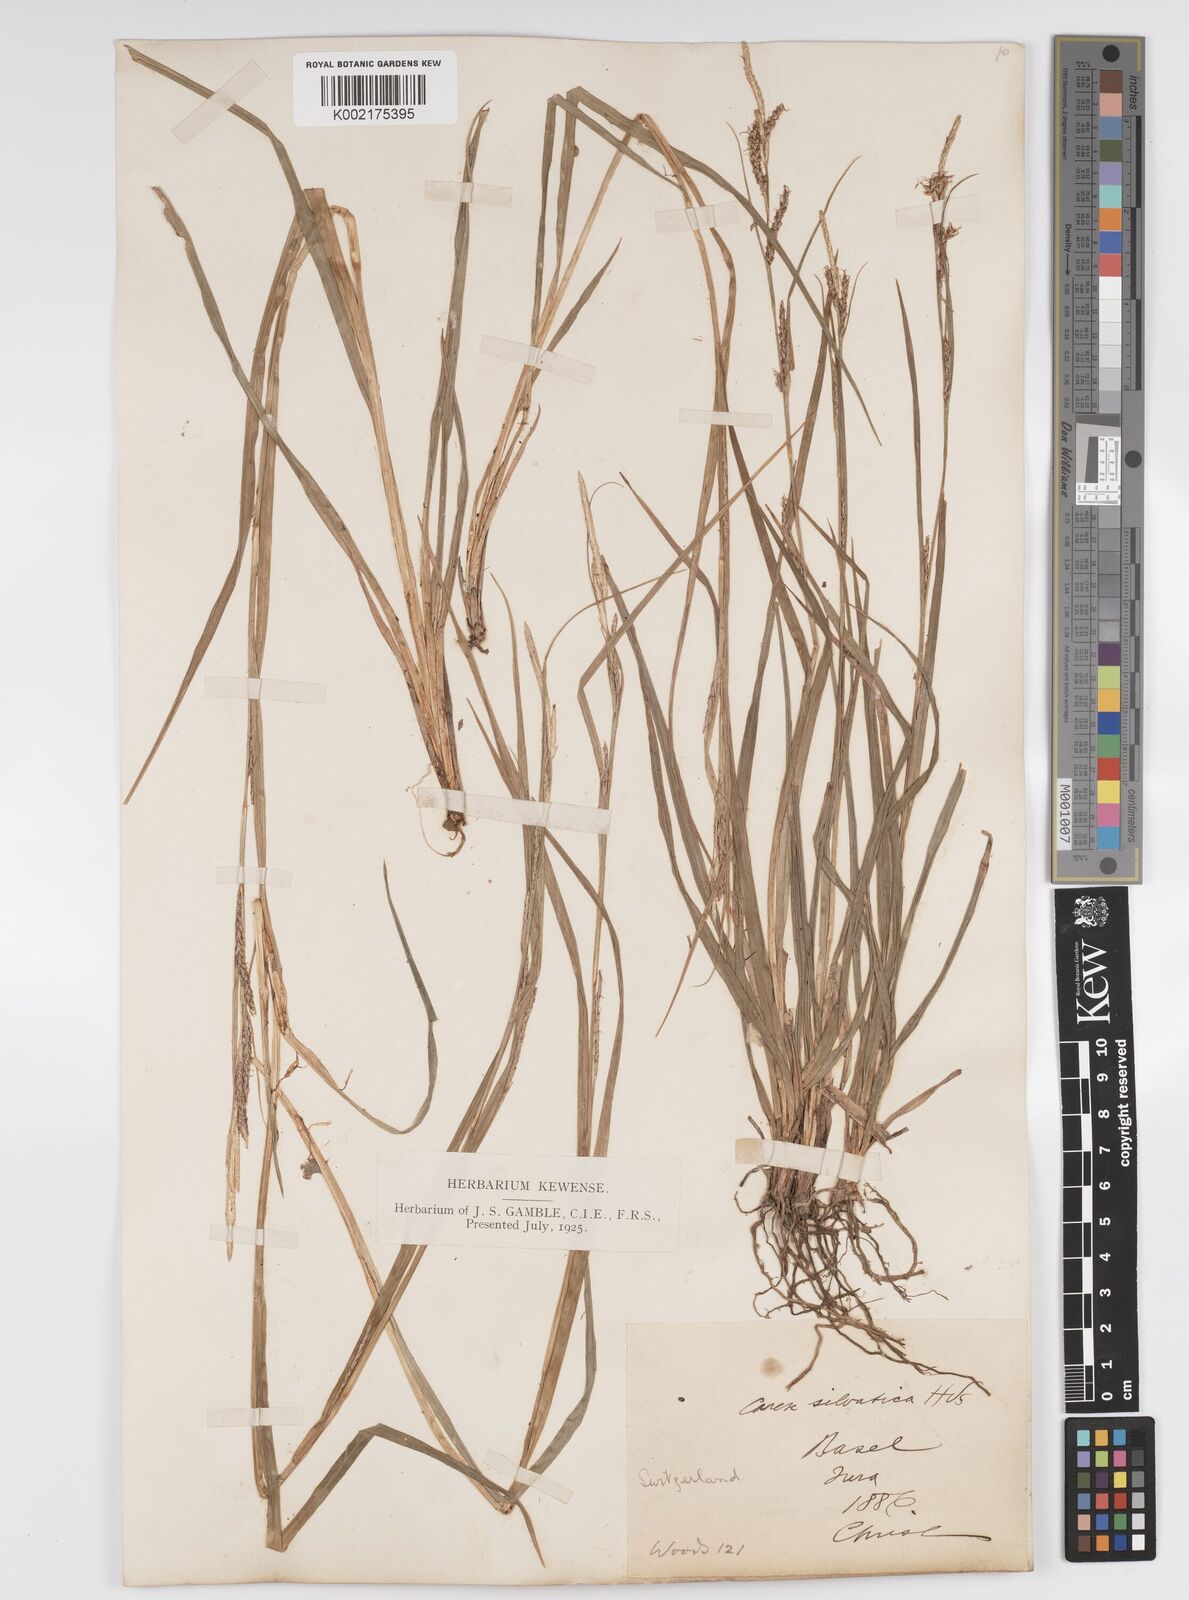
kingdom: Plantae
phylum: Tracheophyta
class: Liliopsida
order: Poales
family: Cyperaceae
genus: Carex
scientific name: Carex sylvatica
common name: Wood-sedge
